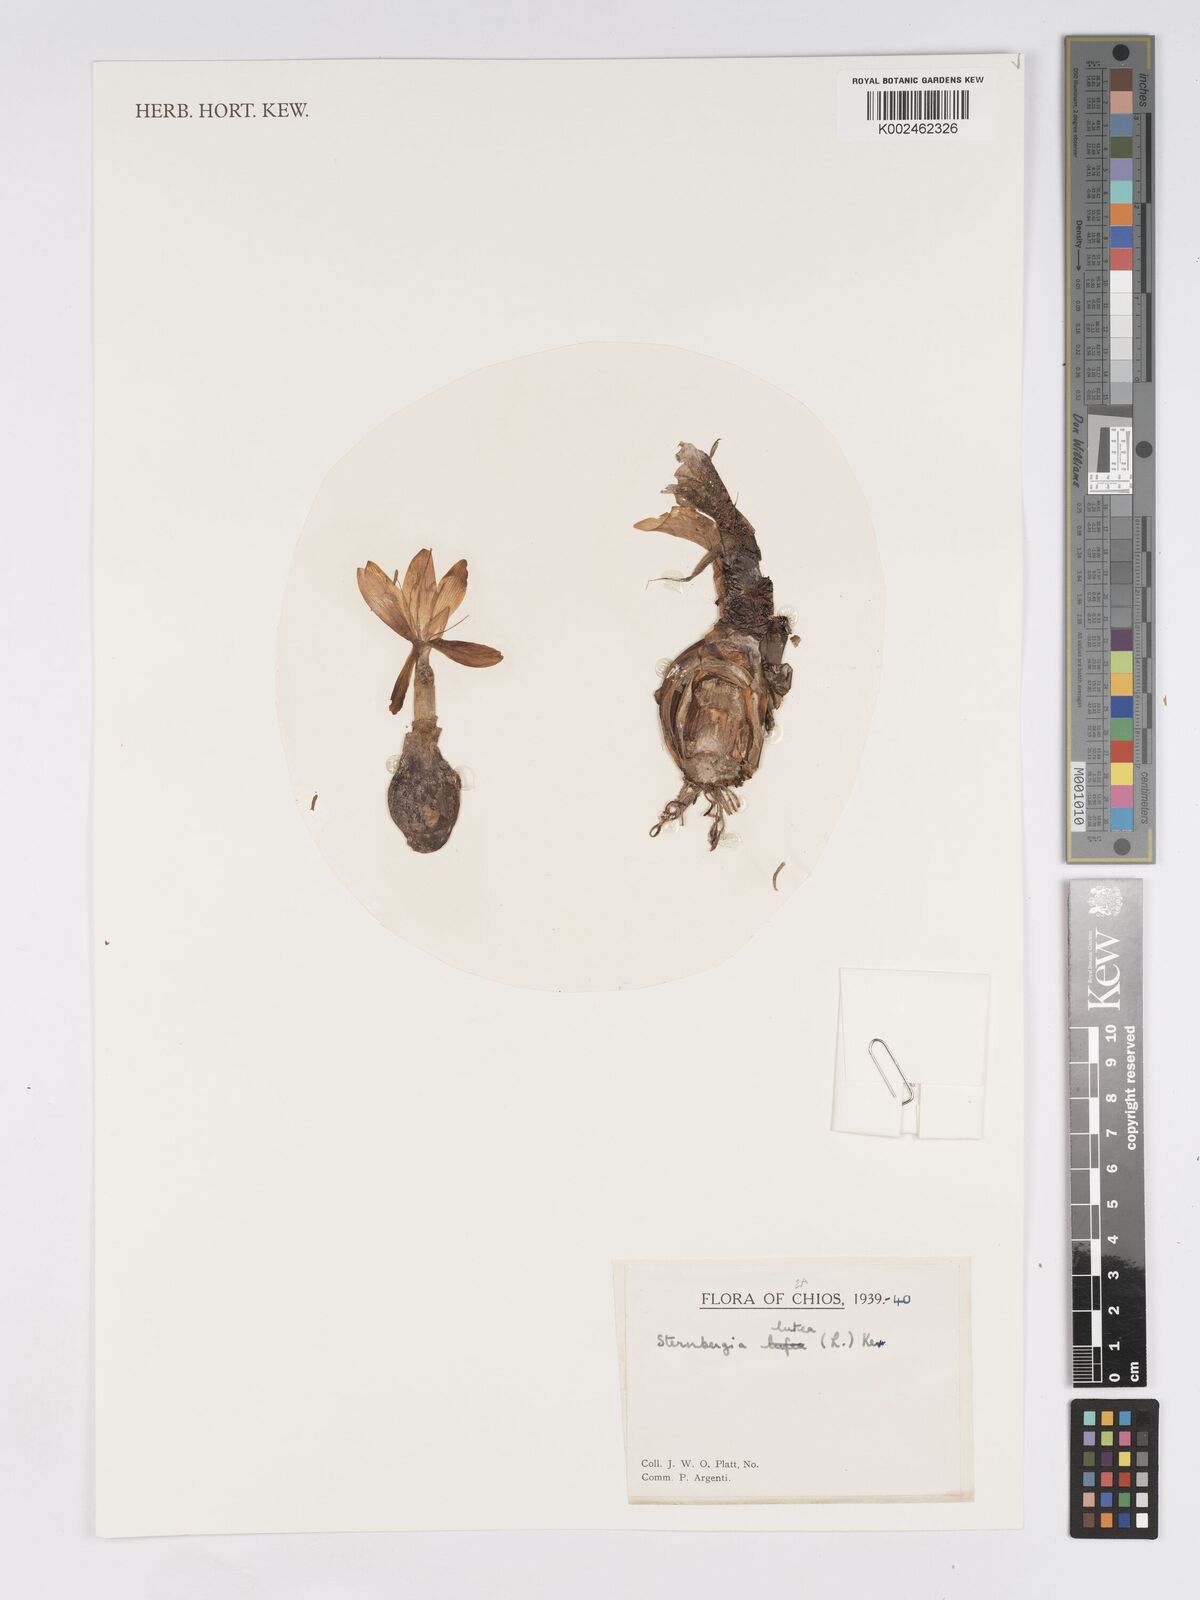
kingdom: Plantae
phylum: Tracheophyta
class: Liliopsida
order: Asparagales
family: Amaryllidaceae
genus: Sternbergia
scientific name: Sternbergia lutea
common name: Winter daffodil
